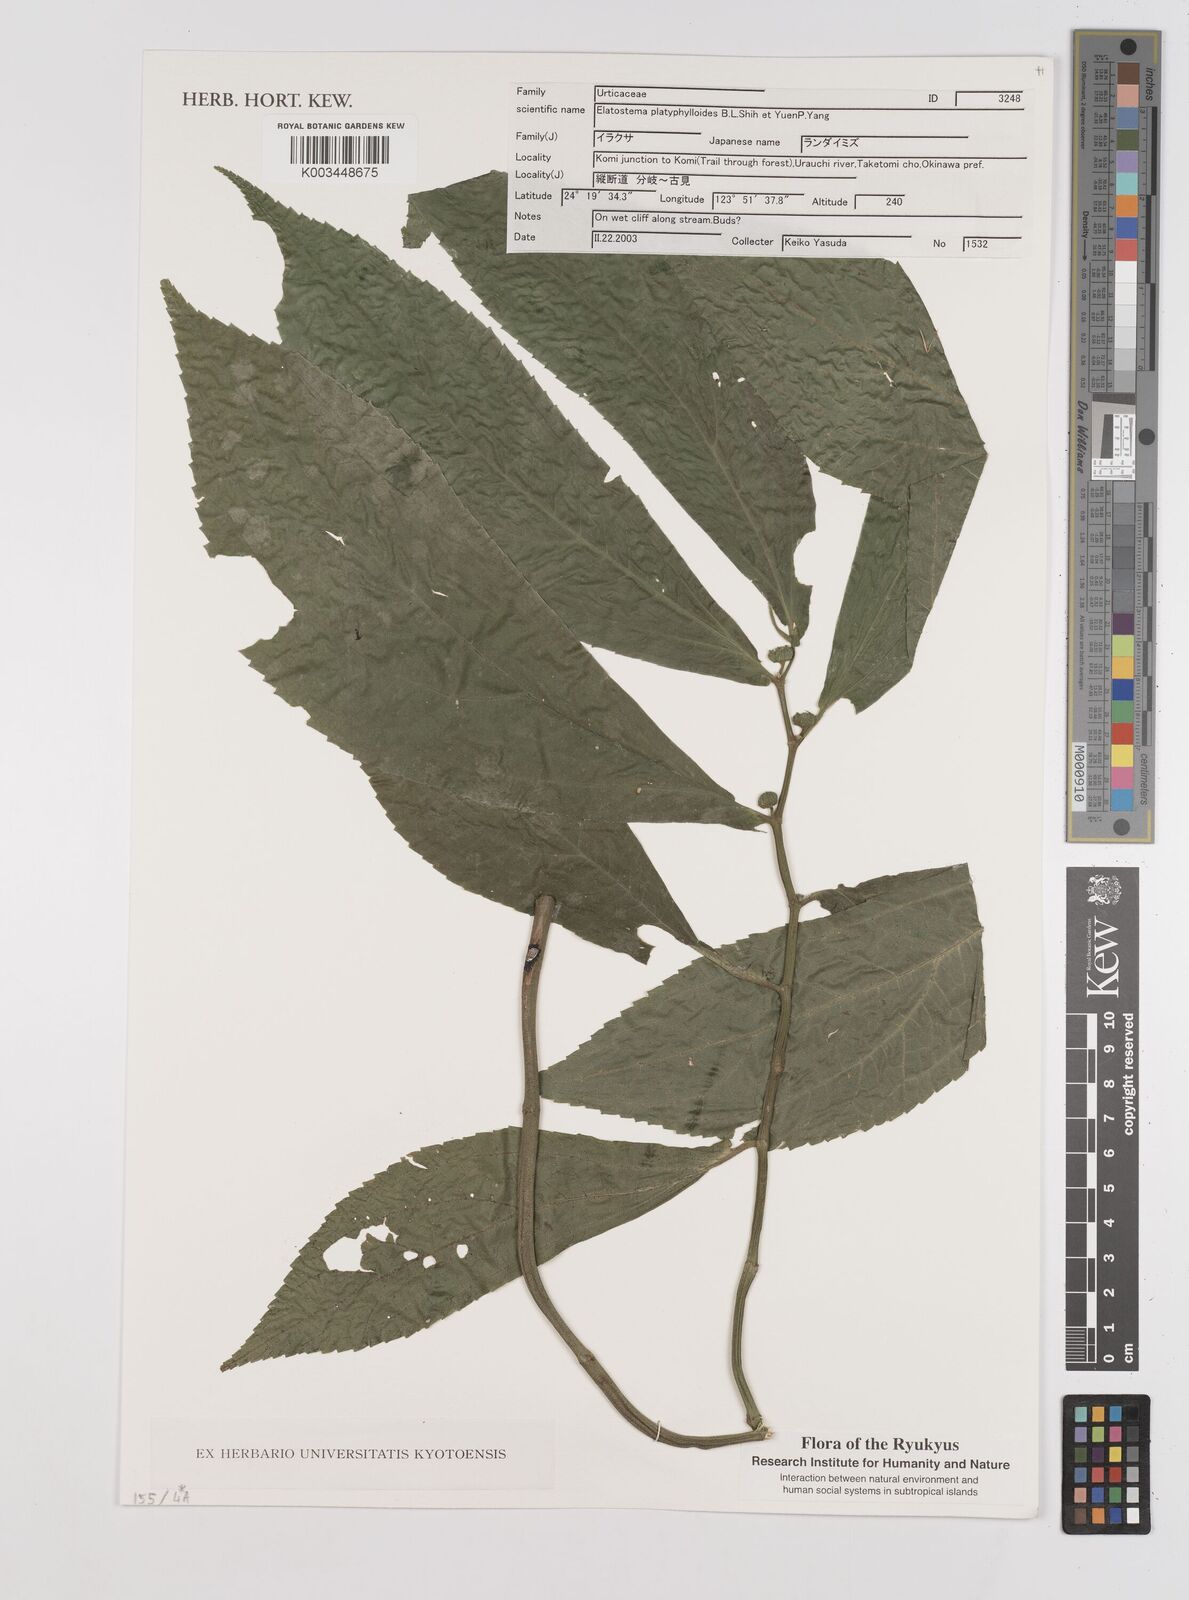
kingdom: Plantae
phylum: Tracheophyta
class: Magnoliopsida
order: Rosales
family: Urticaceae
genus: Elatostema
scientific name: Elatostema platyphyllum
